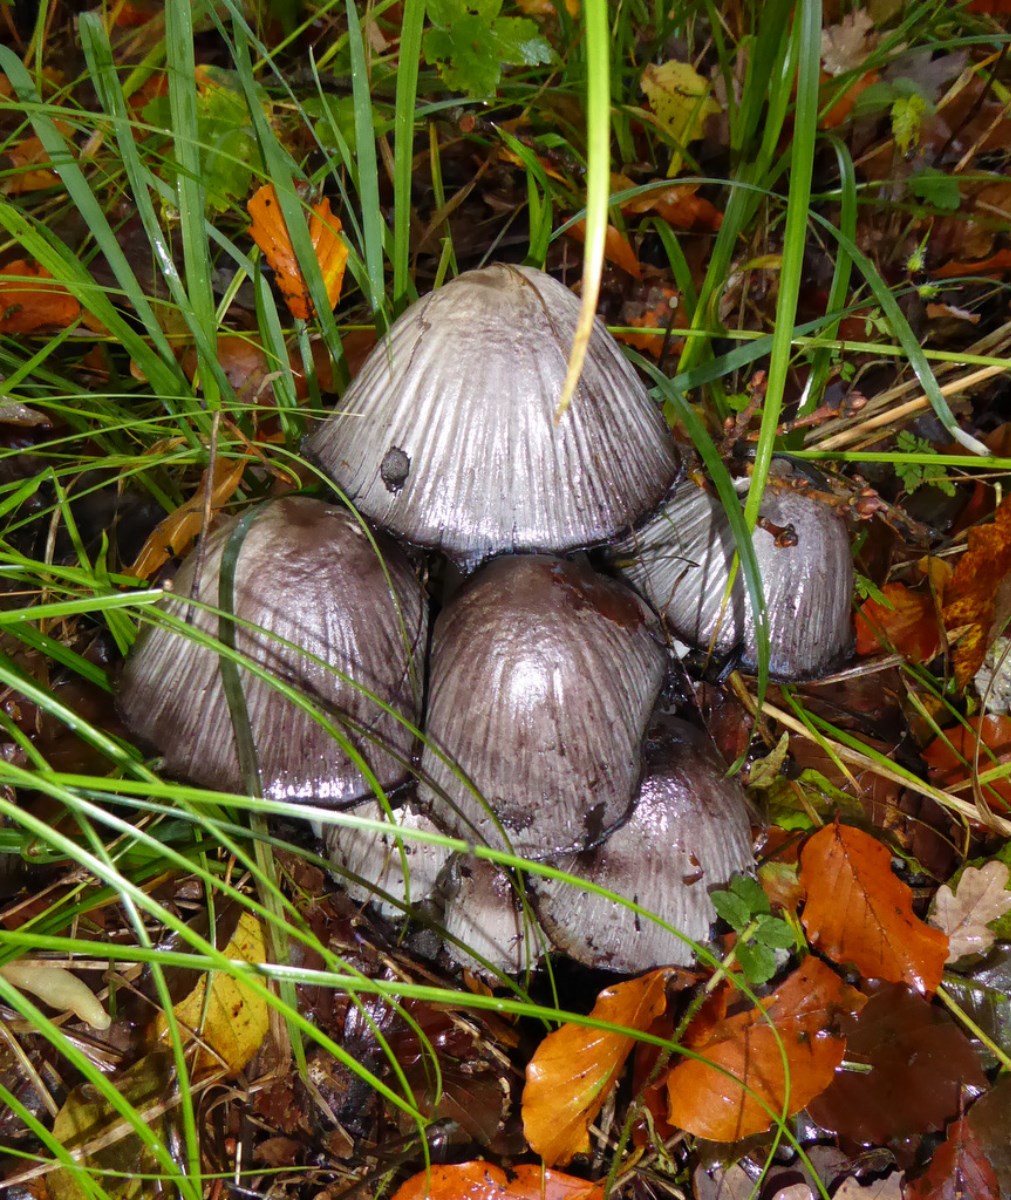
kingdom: Fungi
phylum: Basidiomycota
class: Agaricomycetes
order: Agaricales
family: Psathyrellaceae
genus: Coprinopsis
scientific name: Coprinopsis atramentaria
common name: almindelig blækhat
